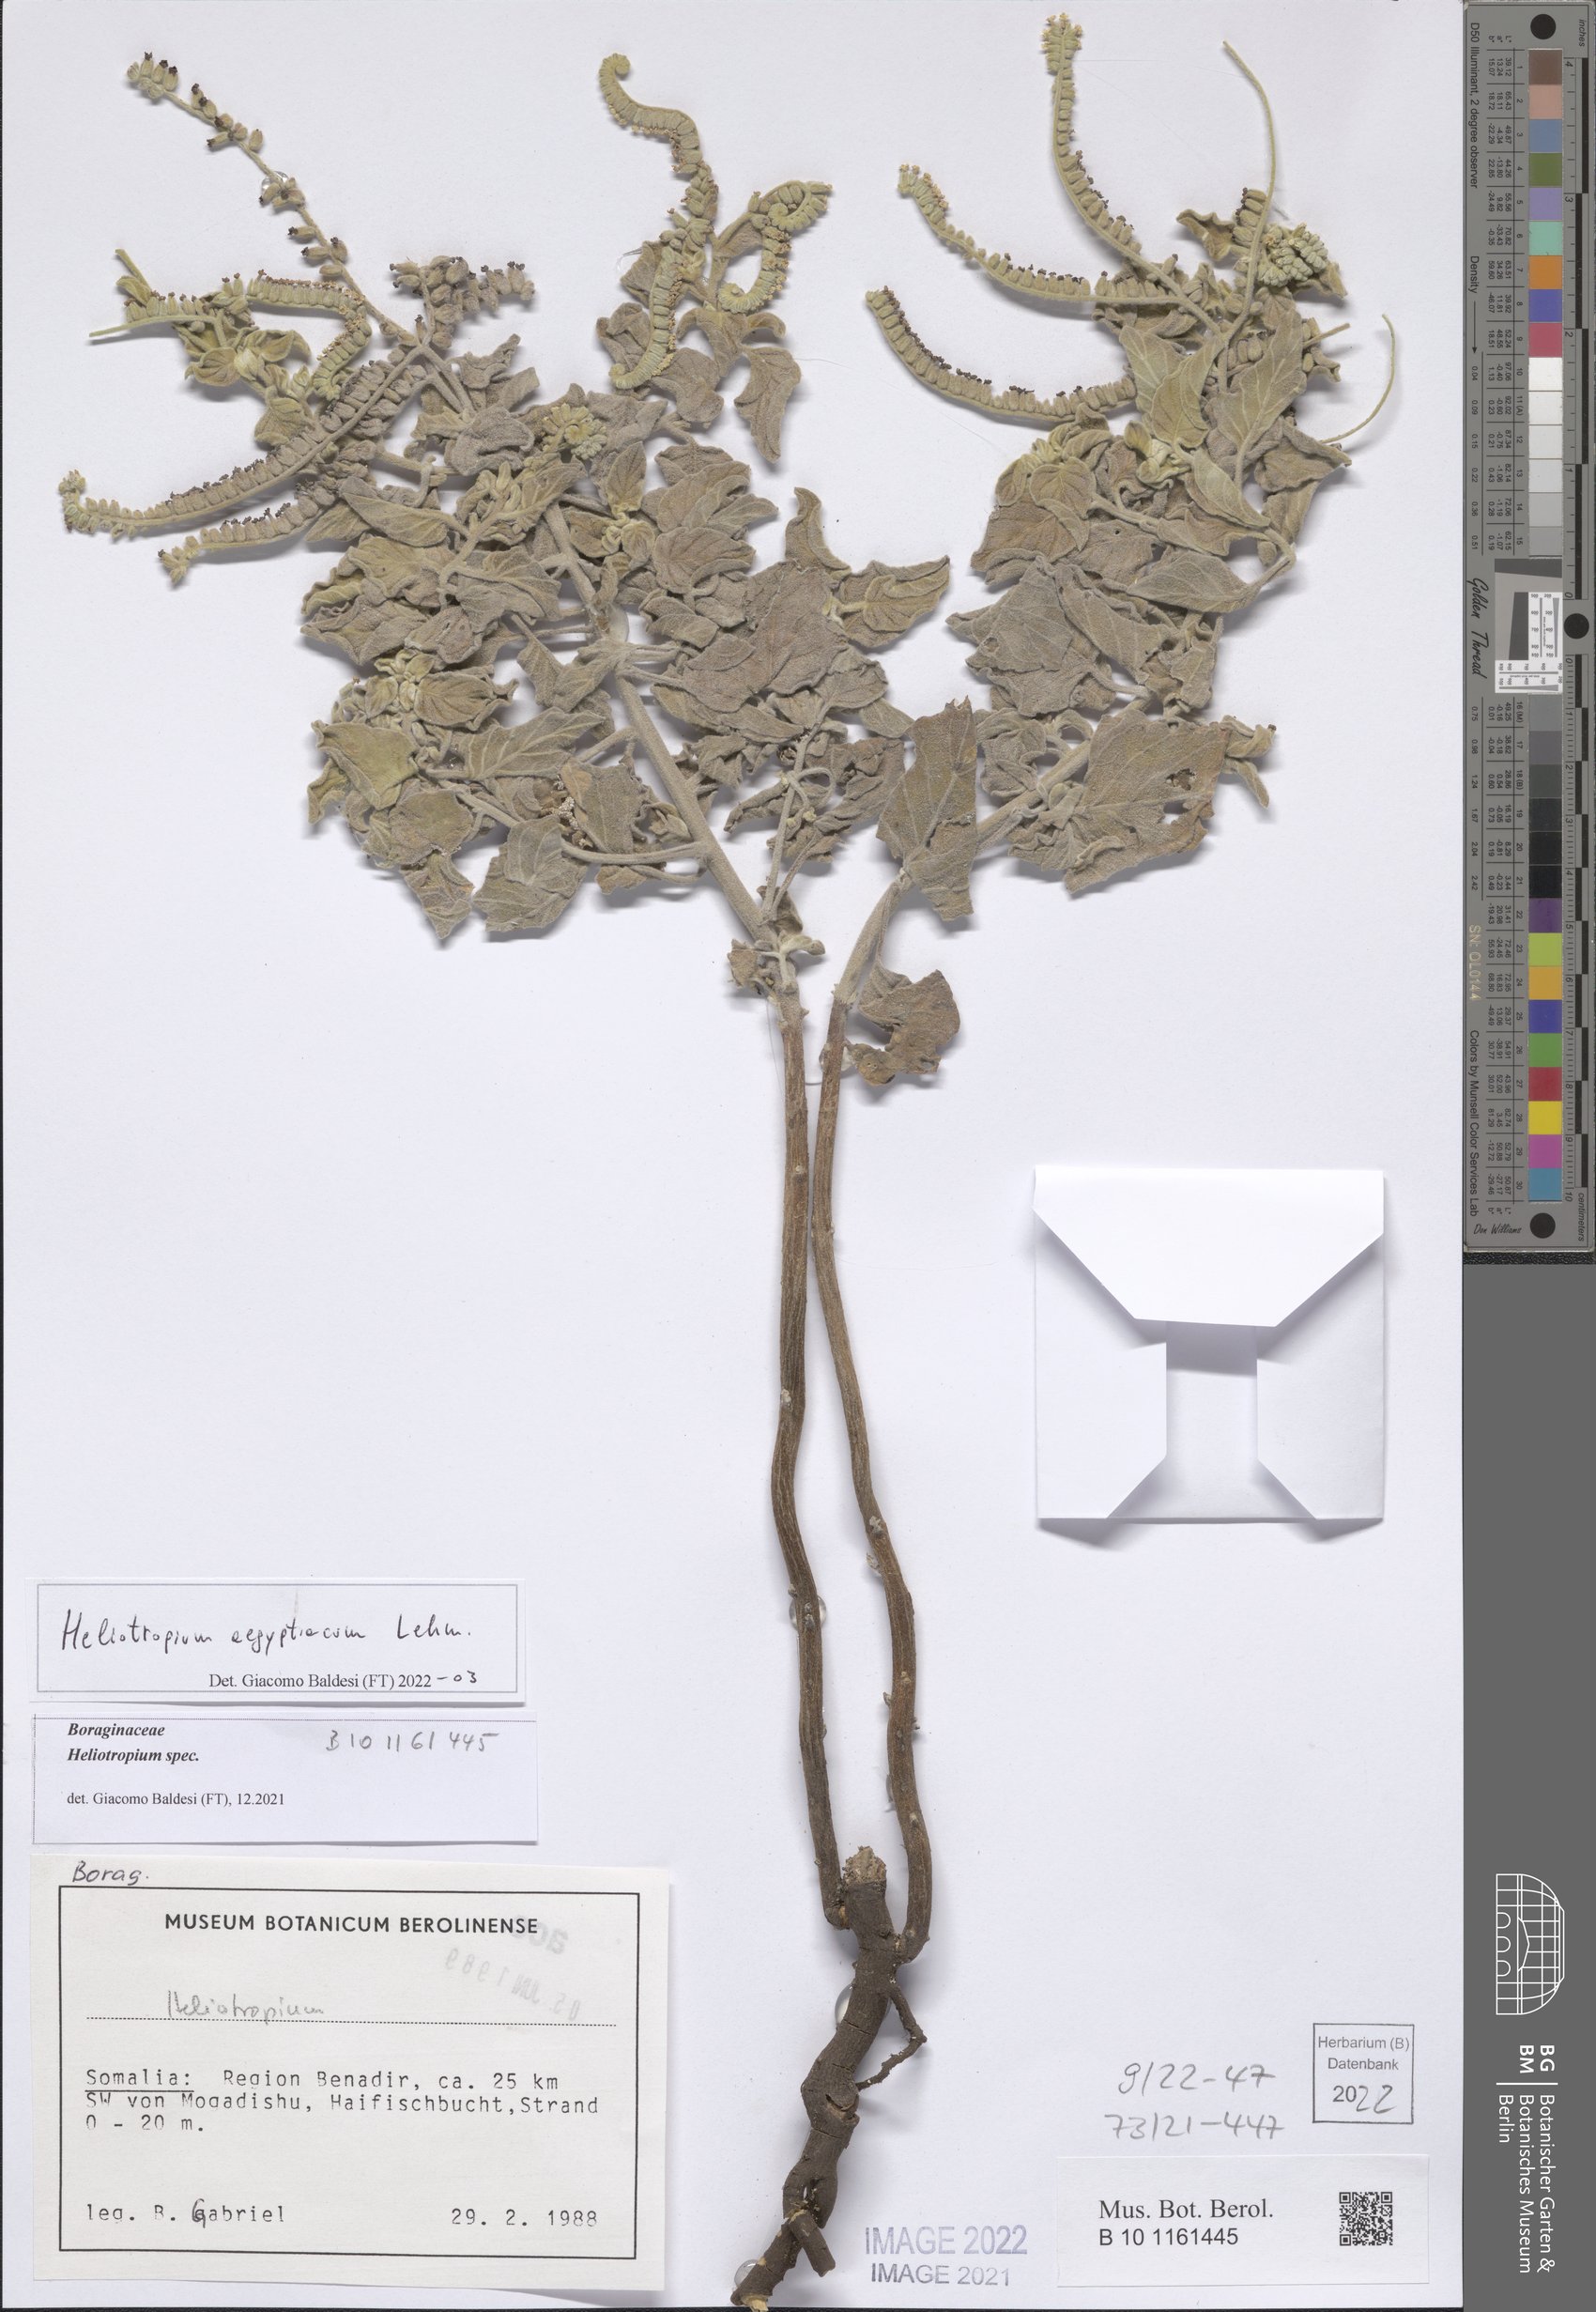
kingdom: Plantae
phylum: Tracheophyta
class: Magnoliopsida
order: Boraginales
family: Heliotropiaceae
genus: Heliotropium
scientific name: Heliotropium aegyptiacum
